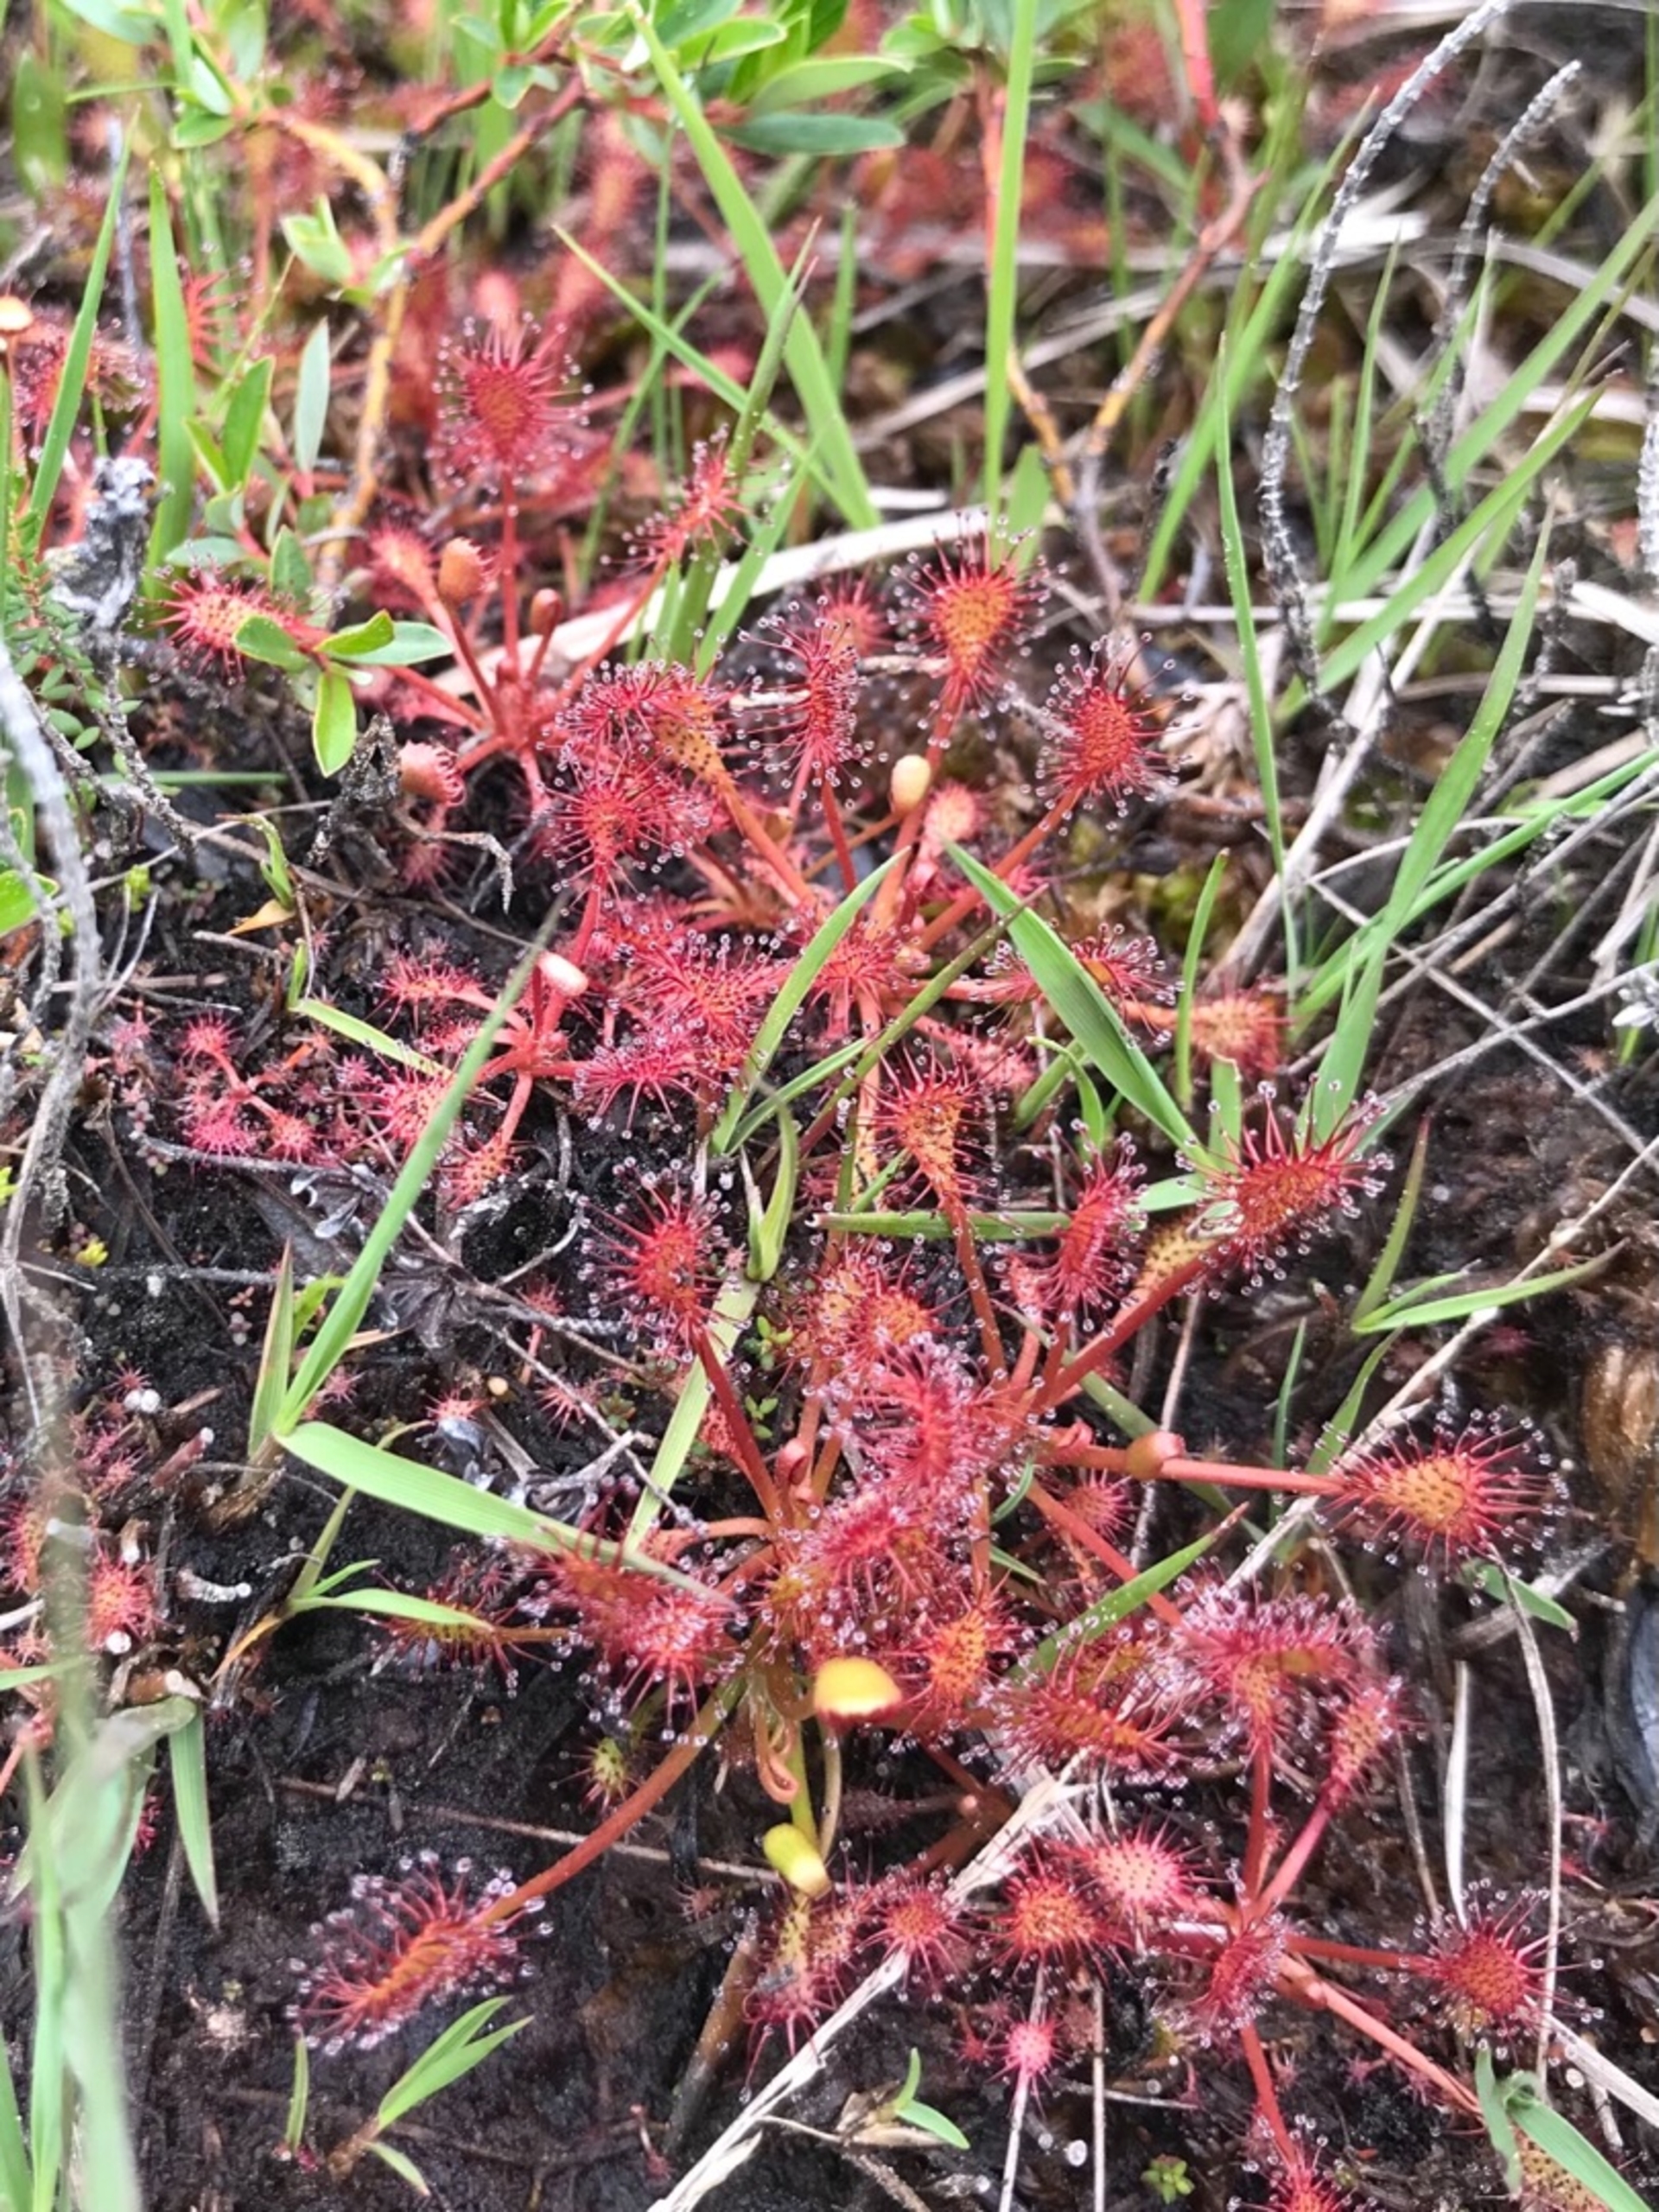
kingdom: Plantae
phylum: Tracheophyta
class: Magnoliopsida
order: Caryophyllales
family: Droseraceae
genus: Drosera
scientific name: Drosera intermedia
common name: Liden soldug
